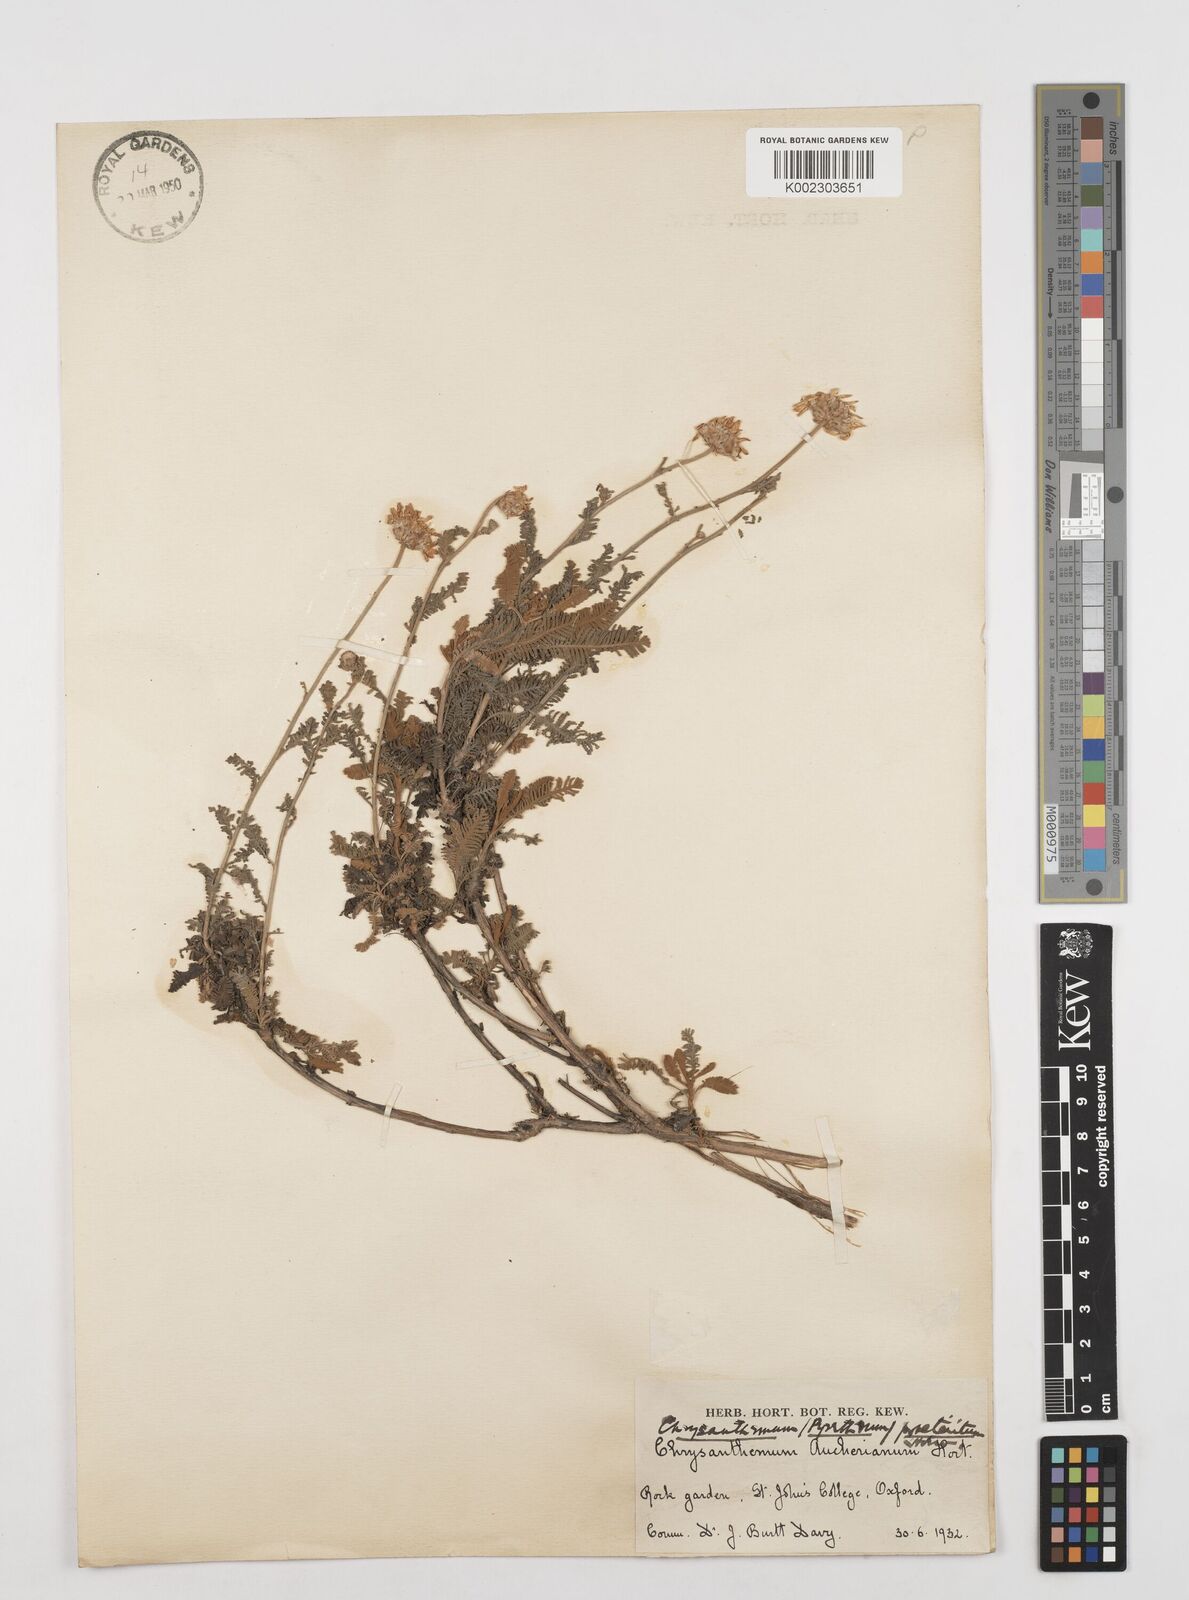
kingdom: Plantae
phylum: Tracheophyta
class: Magnoliopsida
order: Asterales
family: Asteraceae
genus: Tanacetum
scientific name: Tanacetum praeteritum
